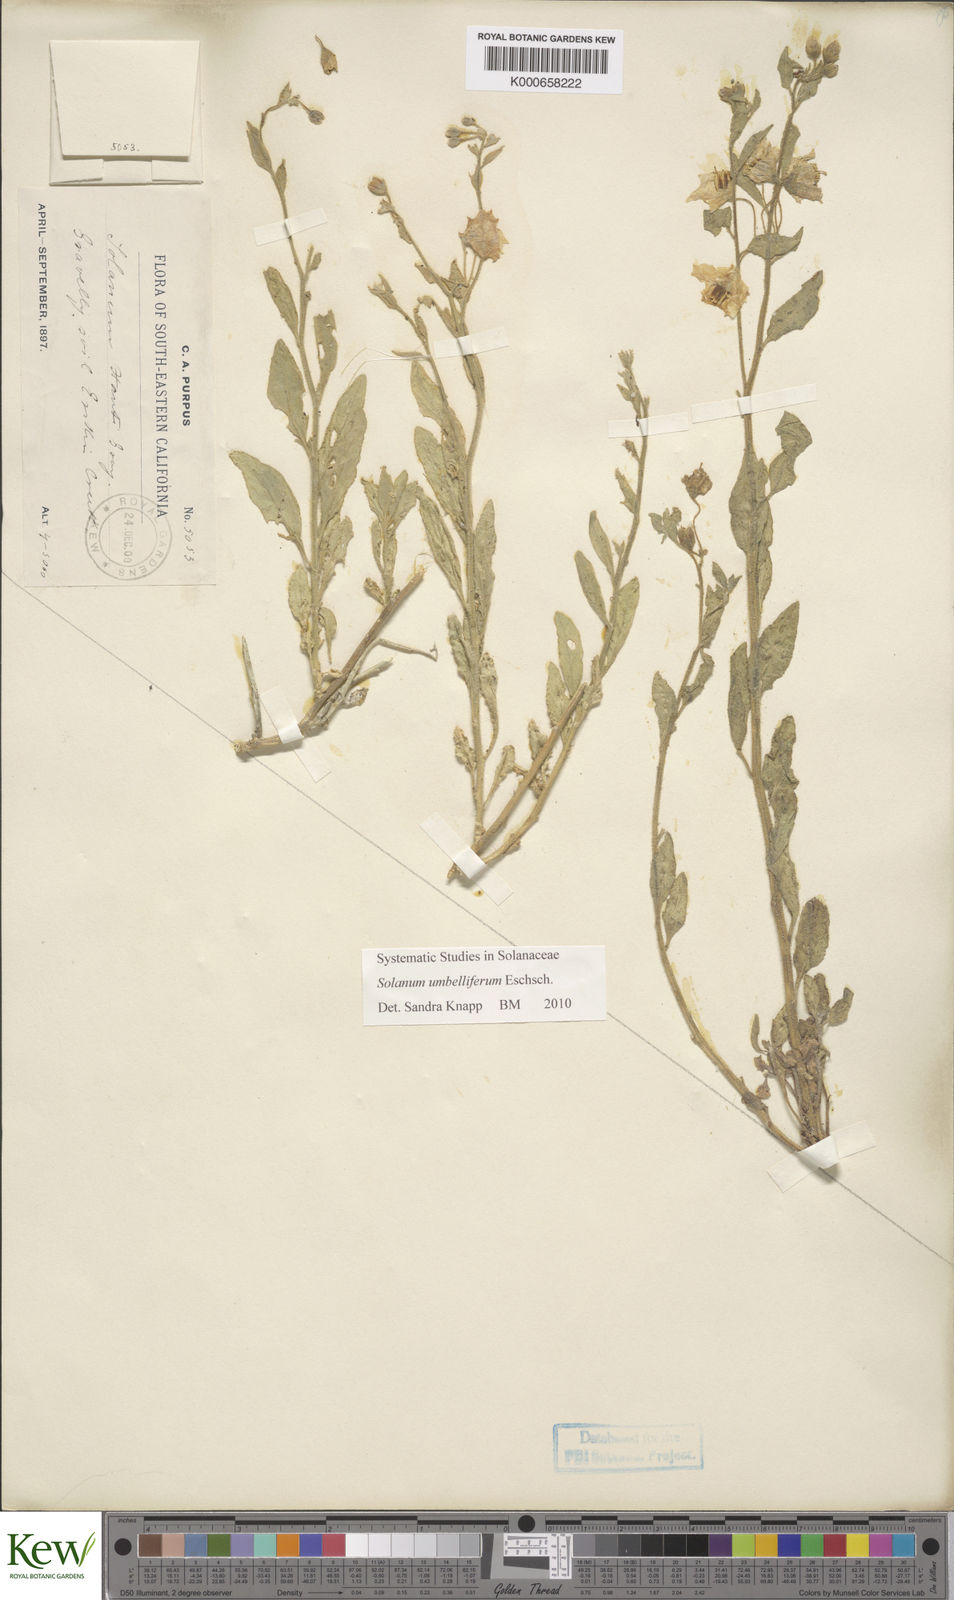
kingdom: Plantae
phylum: Tracheophyta
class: Magnoliopsida
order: Solanales
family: Solanaceae
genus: Solanum
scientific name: Solanum umbelliferum
